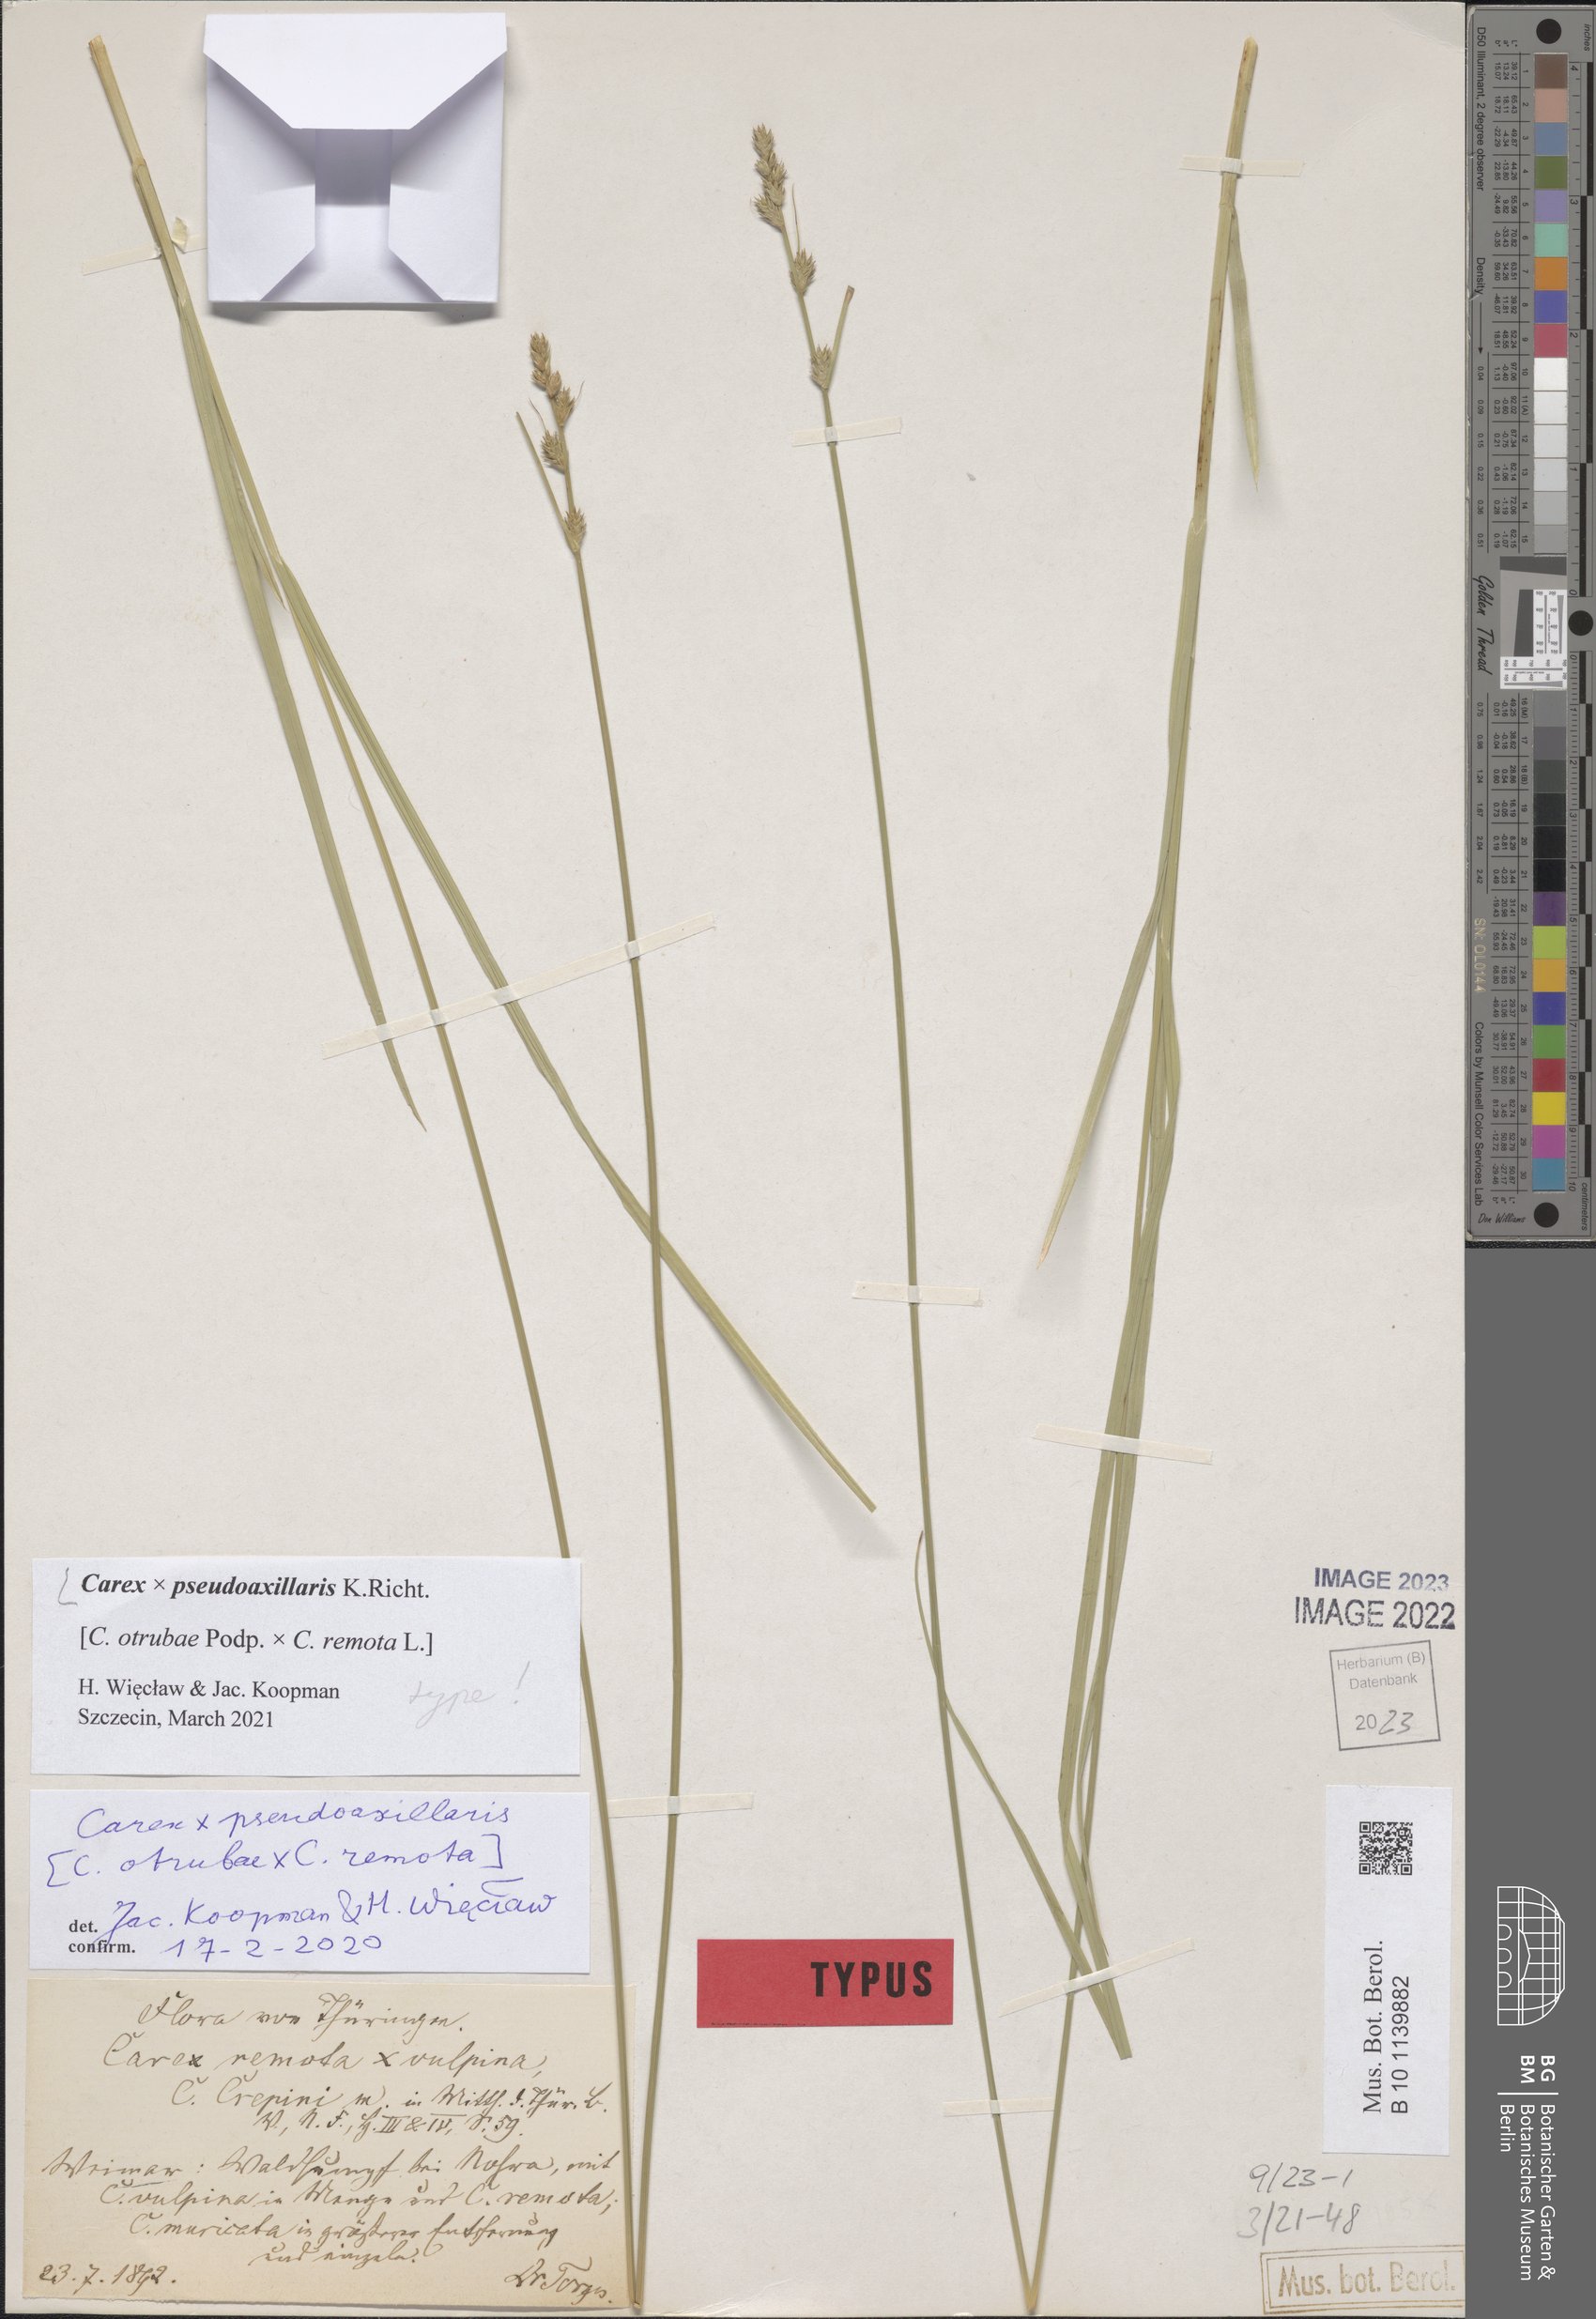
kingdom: Plantae
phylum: Tracheophyta
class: Liliopsida
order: Poales
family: Cyperaceae
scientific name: Cyperaceae
